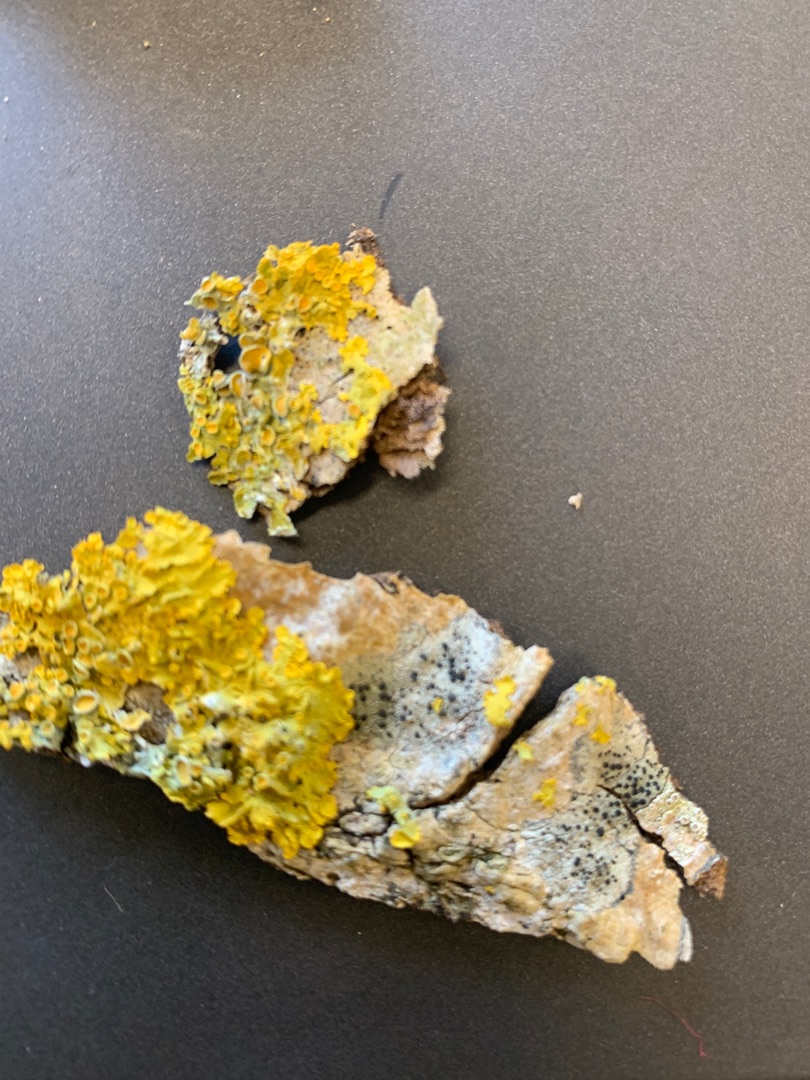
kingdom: Fungi
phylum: Ascomycota
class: Lecanoromycetes
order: Teloschistales
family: Teloschistaceae
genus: Xanthoria
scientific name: Xanthoria parietina
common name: Almindelig væggelav
